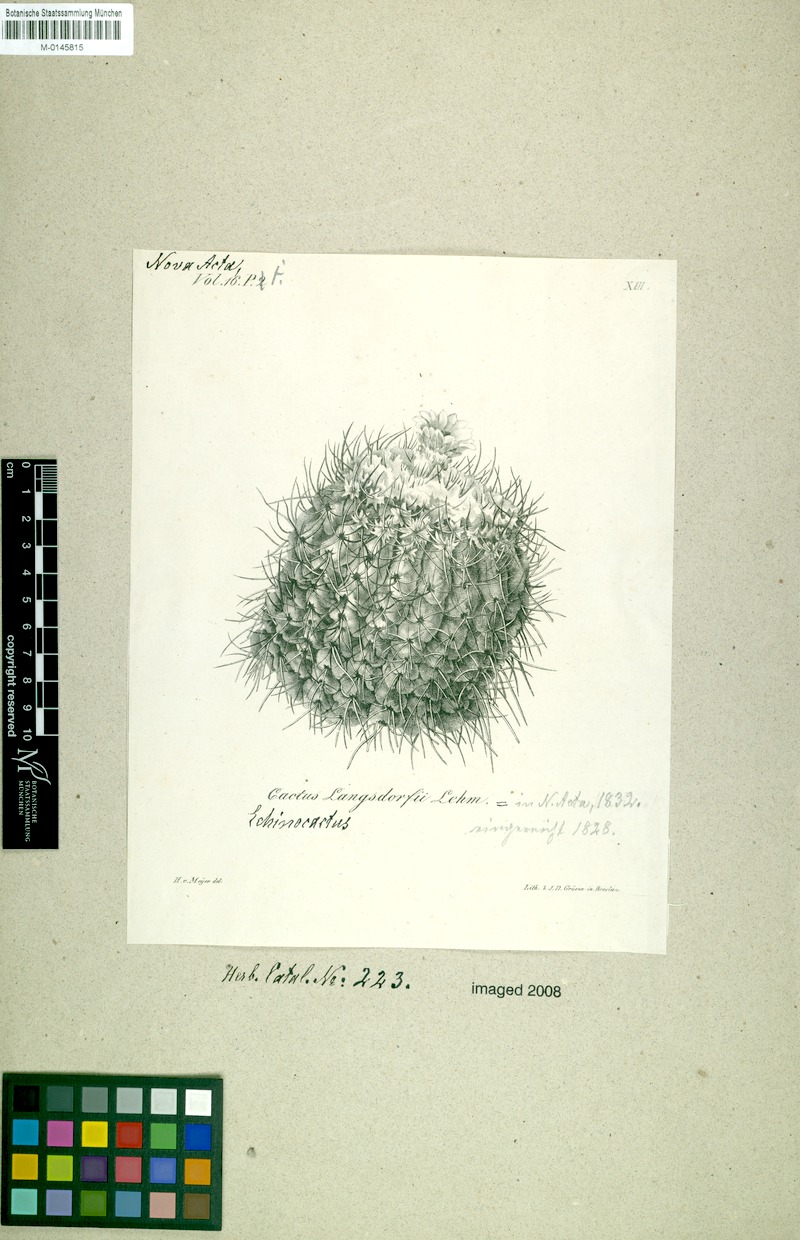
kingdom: Plantae
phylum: Tracheophyta
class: Magnoliopsida
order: Caryophyllales
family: Cactaceae
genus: Parodia
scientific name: Parodia langsdorfii
